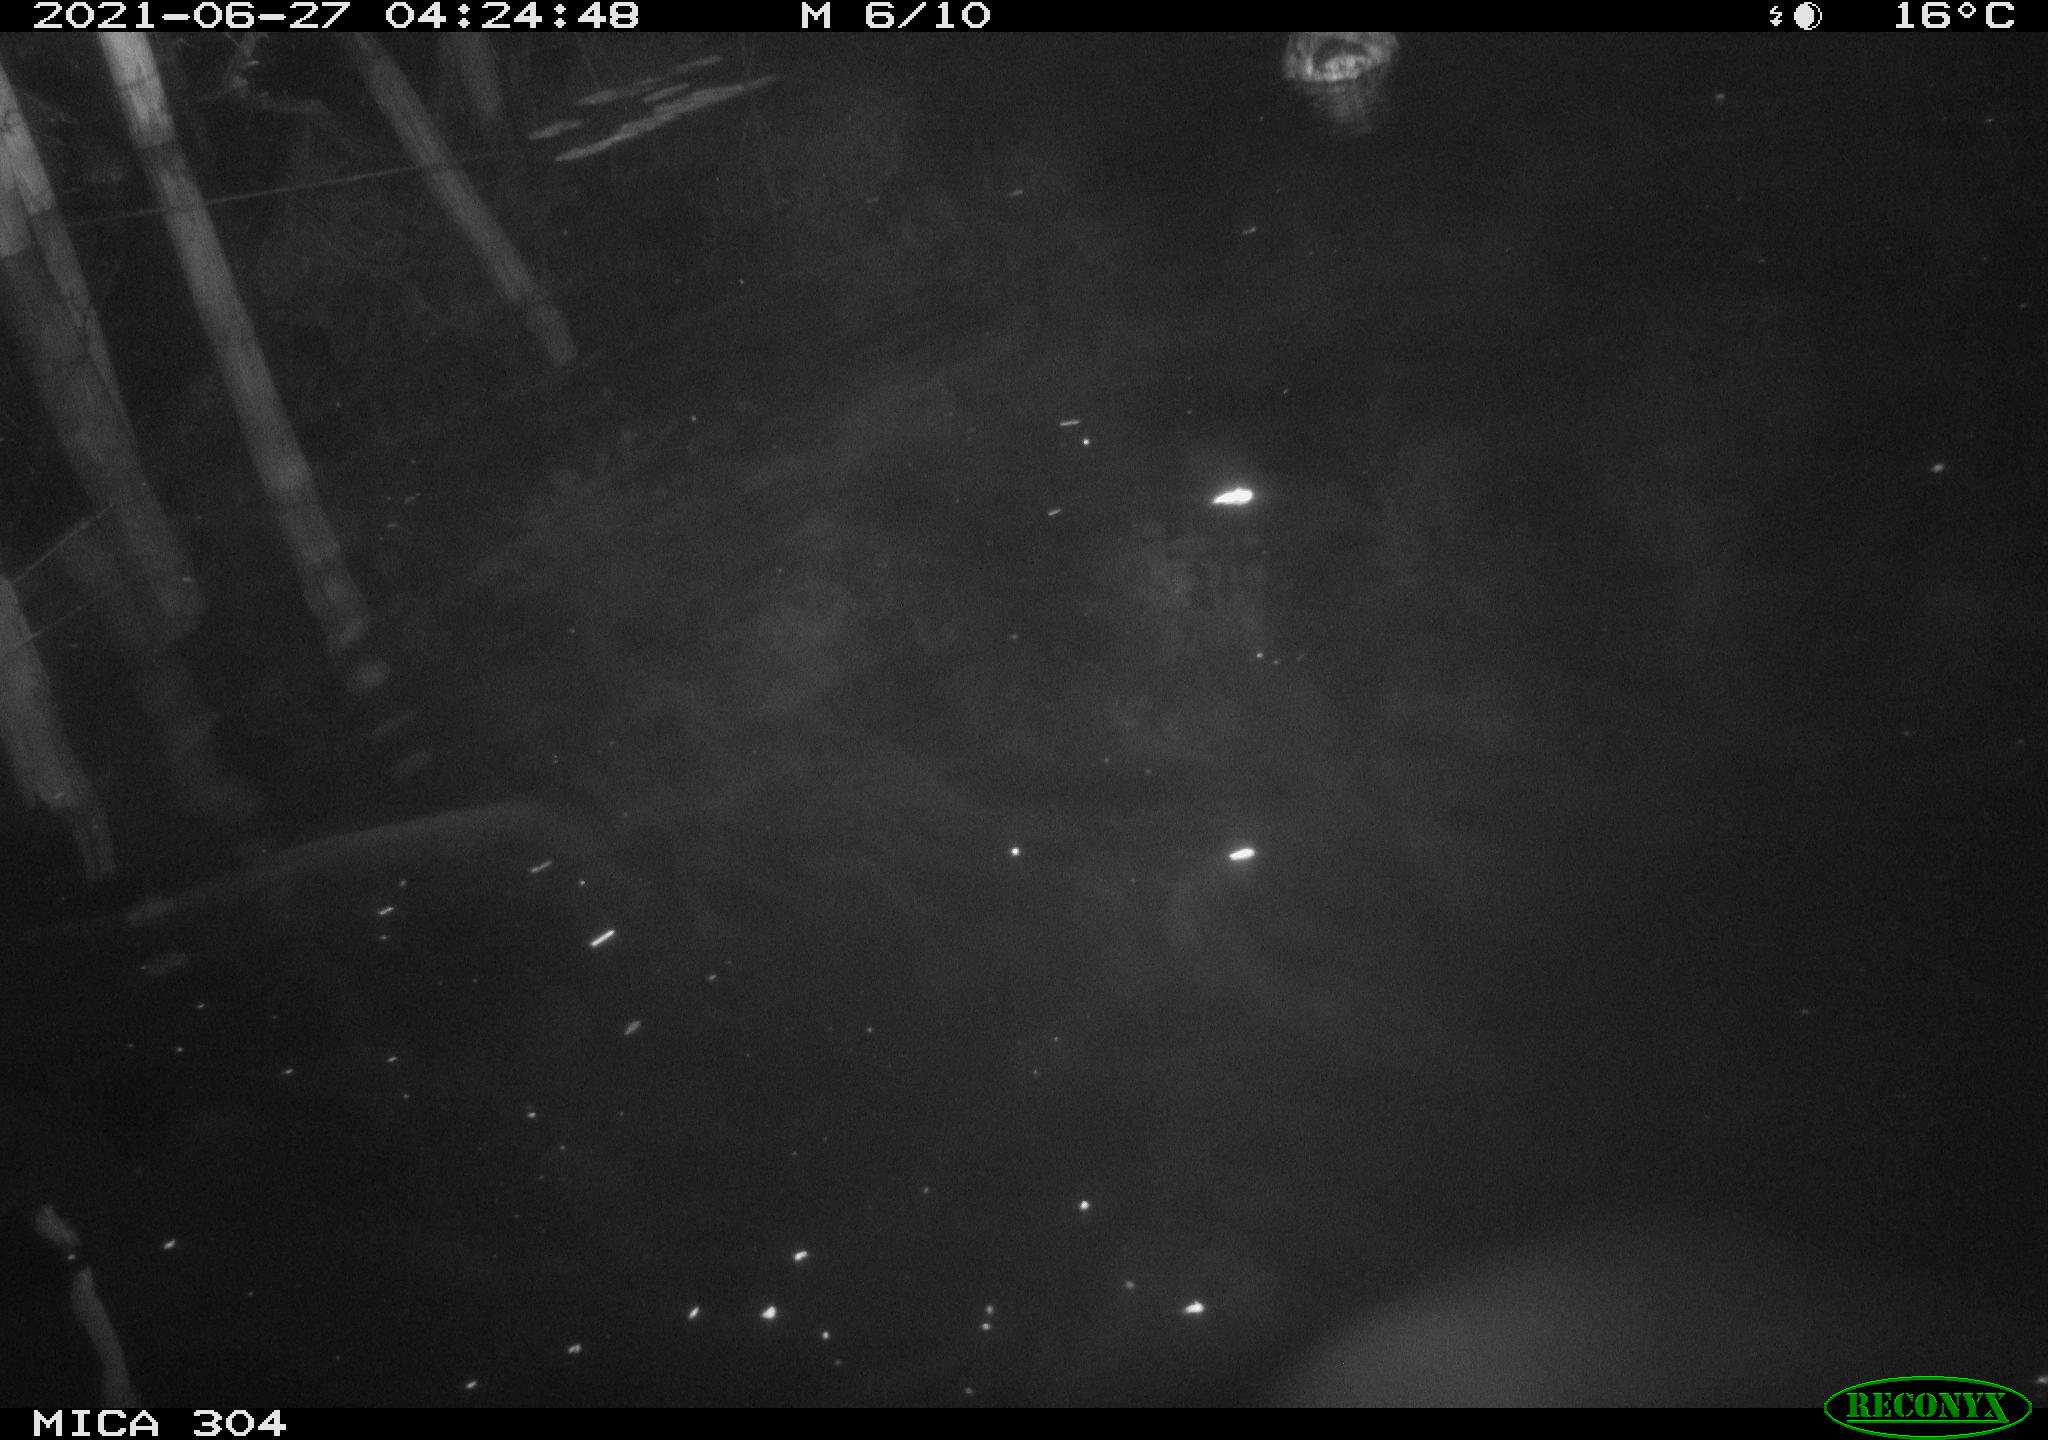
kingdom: Animalia
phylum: Chordata
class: Aves
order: Anseriformes
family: Anatidae
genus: Anas
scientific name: Anas platyrhynchos
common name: Mallard
